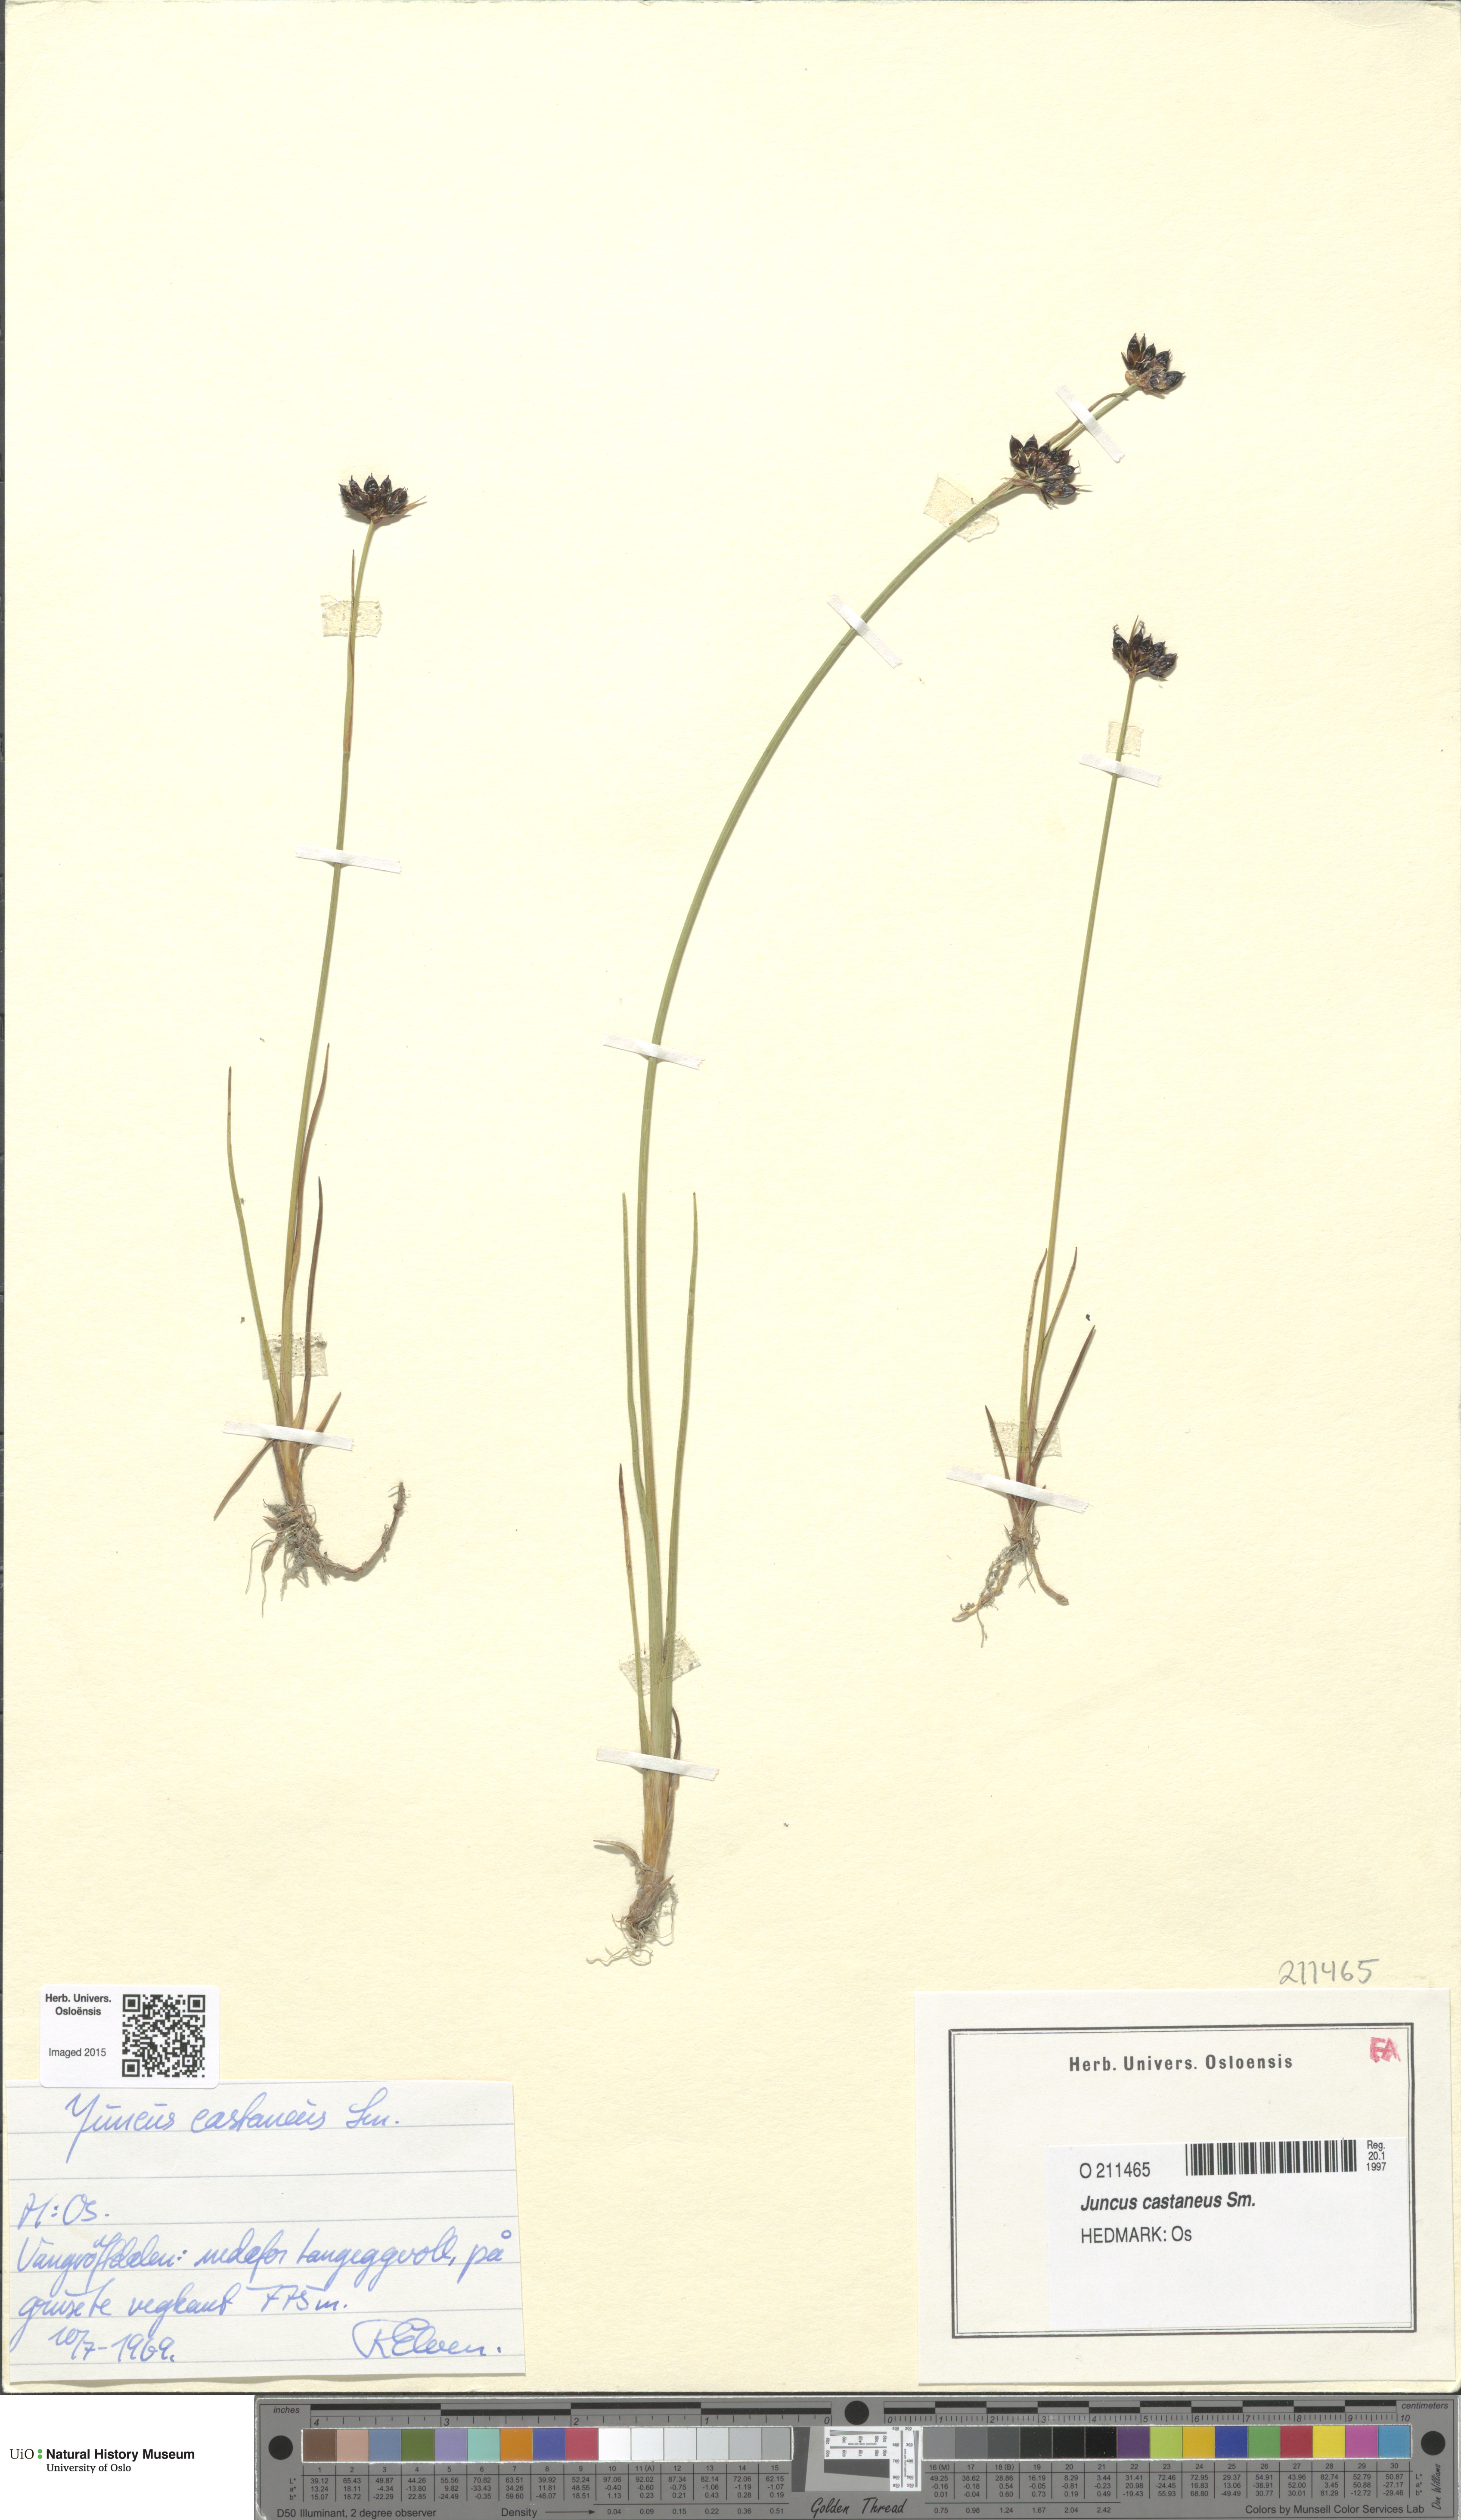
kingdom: Plantae
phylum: Tracheophyta
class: Liliopsida
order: Poales
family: Juncaceae
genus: Juncus
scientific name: Juncus castaneus
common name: Chestnut rush
